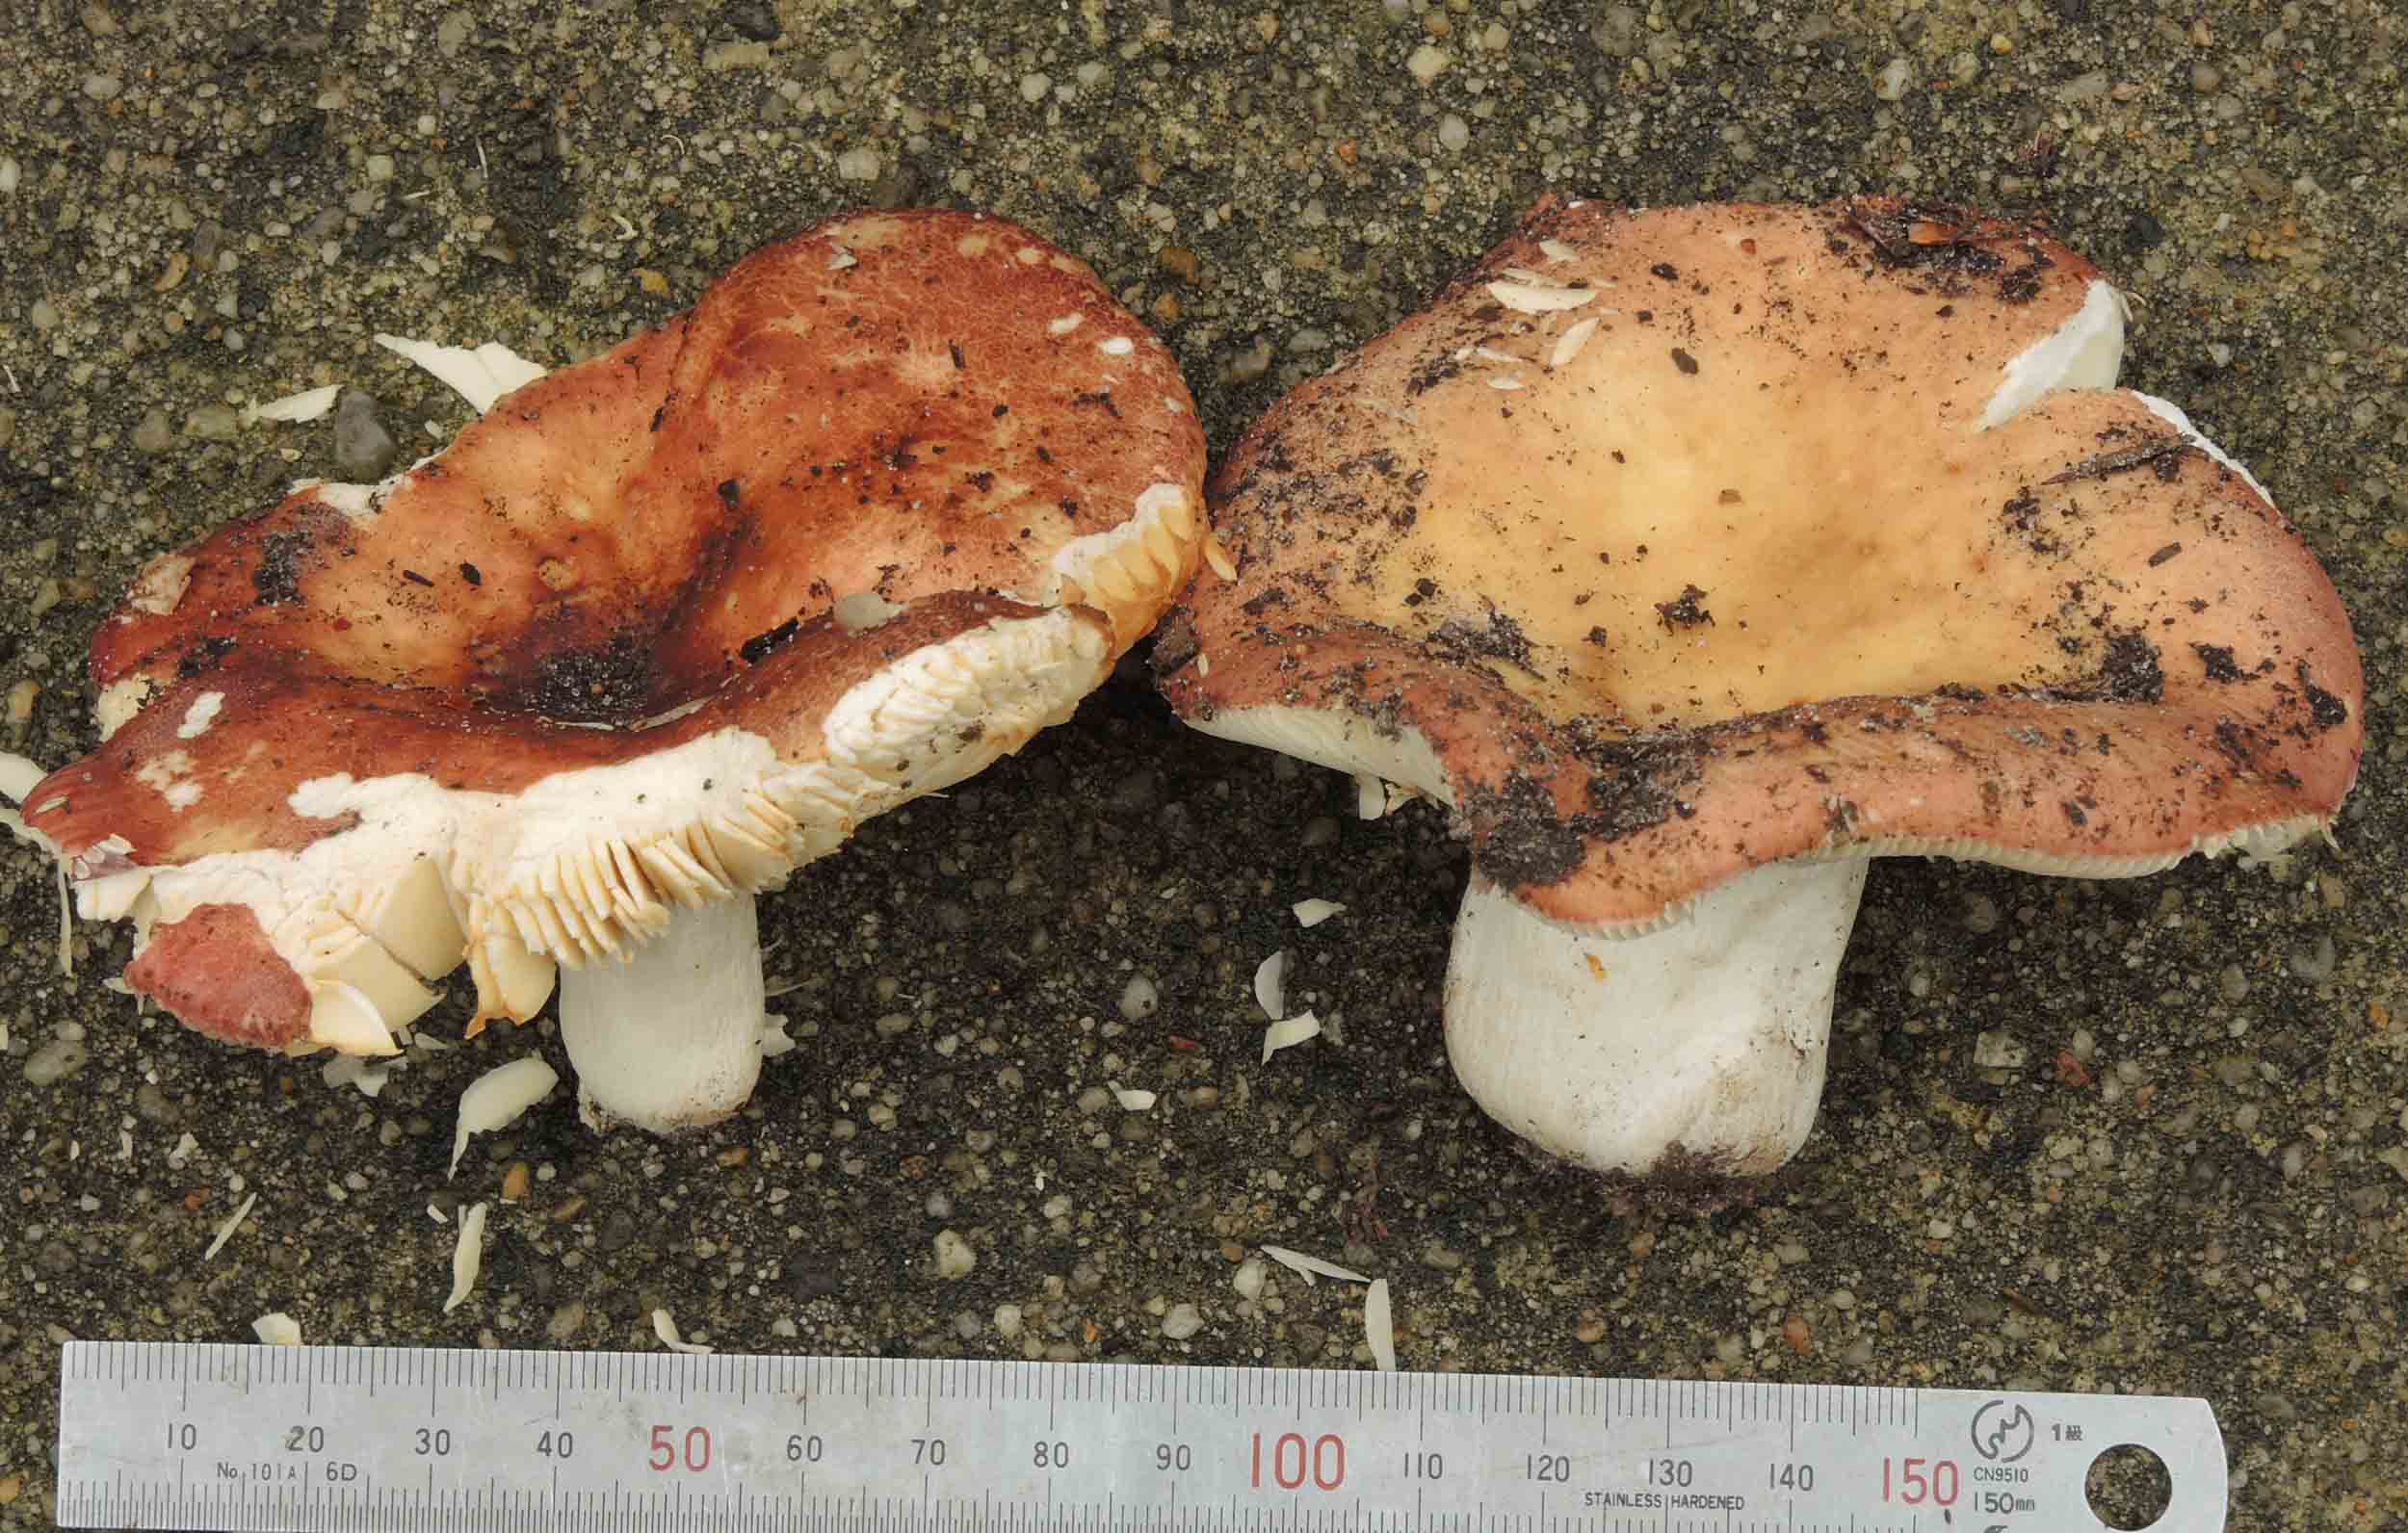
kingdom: Fungi
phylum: Basidiomycota
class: Agaricomycetes
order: Russulales
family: Russulaceae
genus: Russula
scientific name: Russula curtipes
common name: kortstokket skørhat
